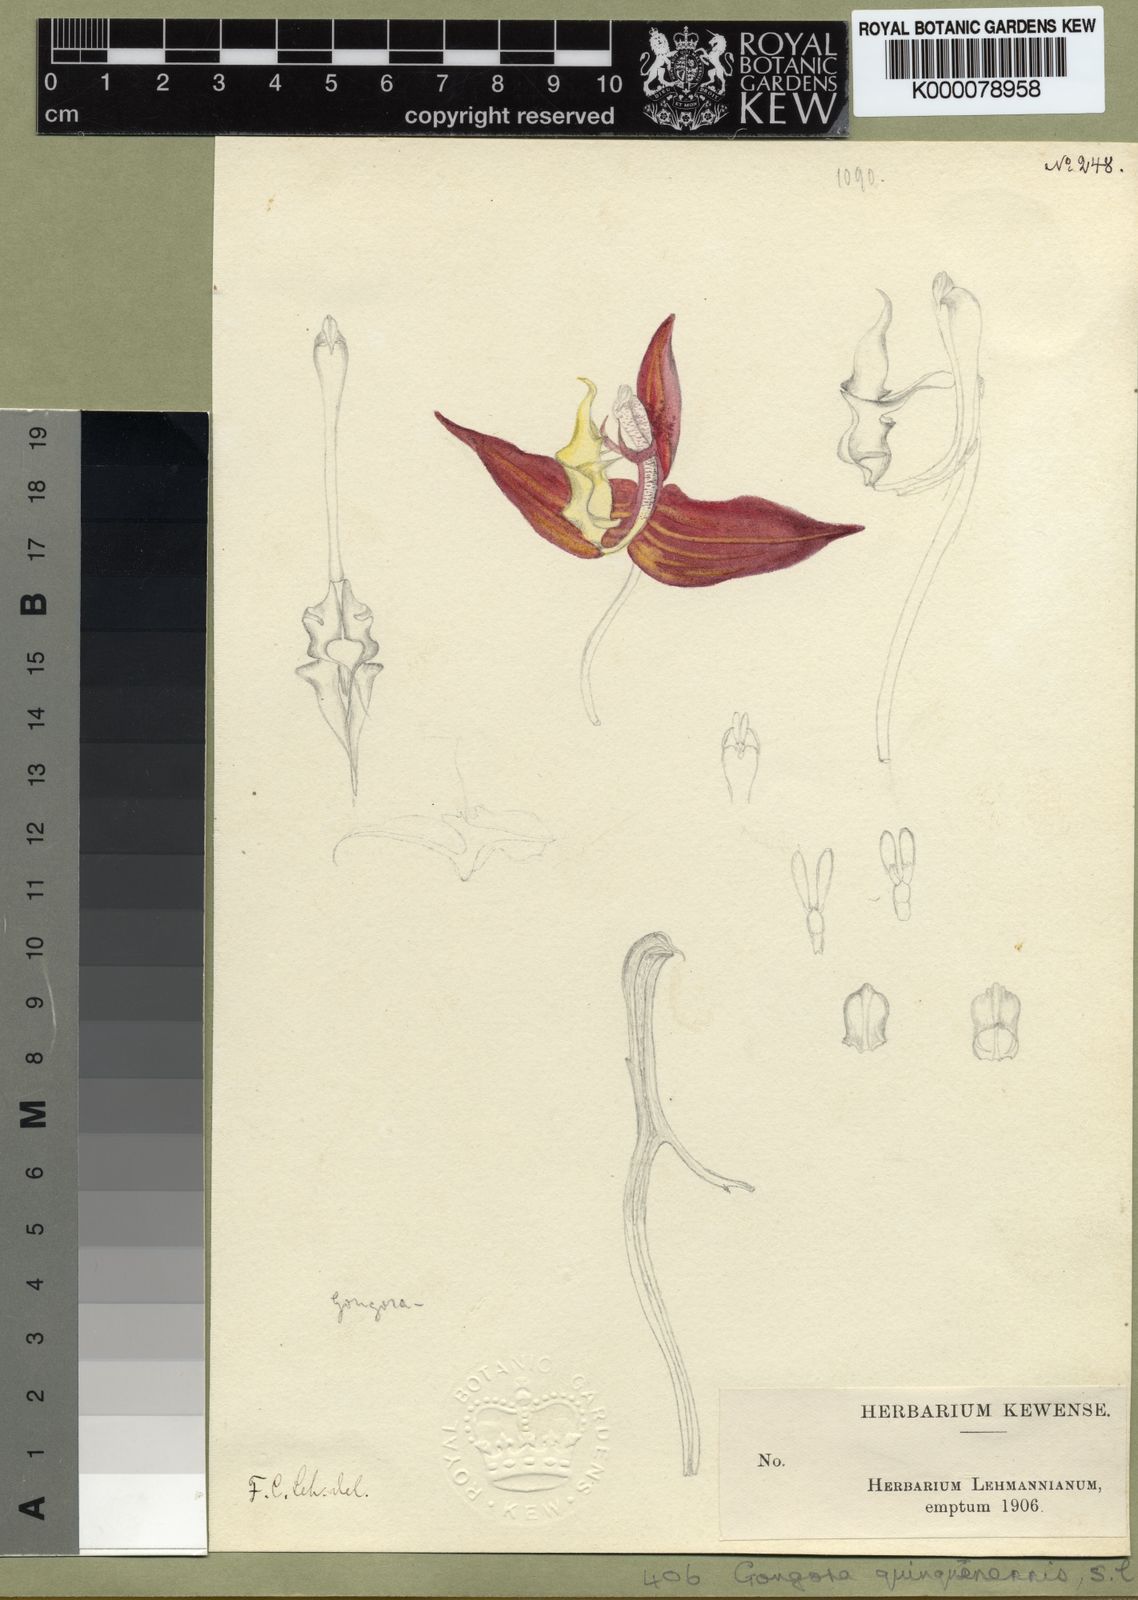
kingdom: Plantae
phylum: Tracheophyta
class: Liliopsida
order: Asparagales
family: Orchidaceae
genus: Gongora
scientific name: Gongora quinquenervis
